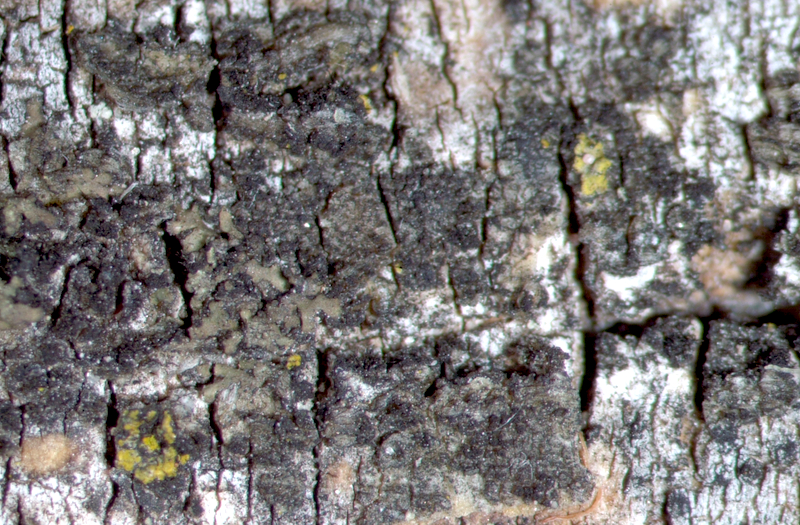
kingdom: Fungi
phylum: Ascomycota
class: Lecanoromycetes
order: Caliciales
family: Physciaceae
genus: Hyperphyscia
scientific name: Hyperphyscia adglutinata
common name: Grainy shadow-crust lichen
